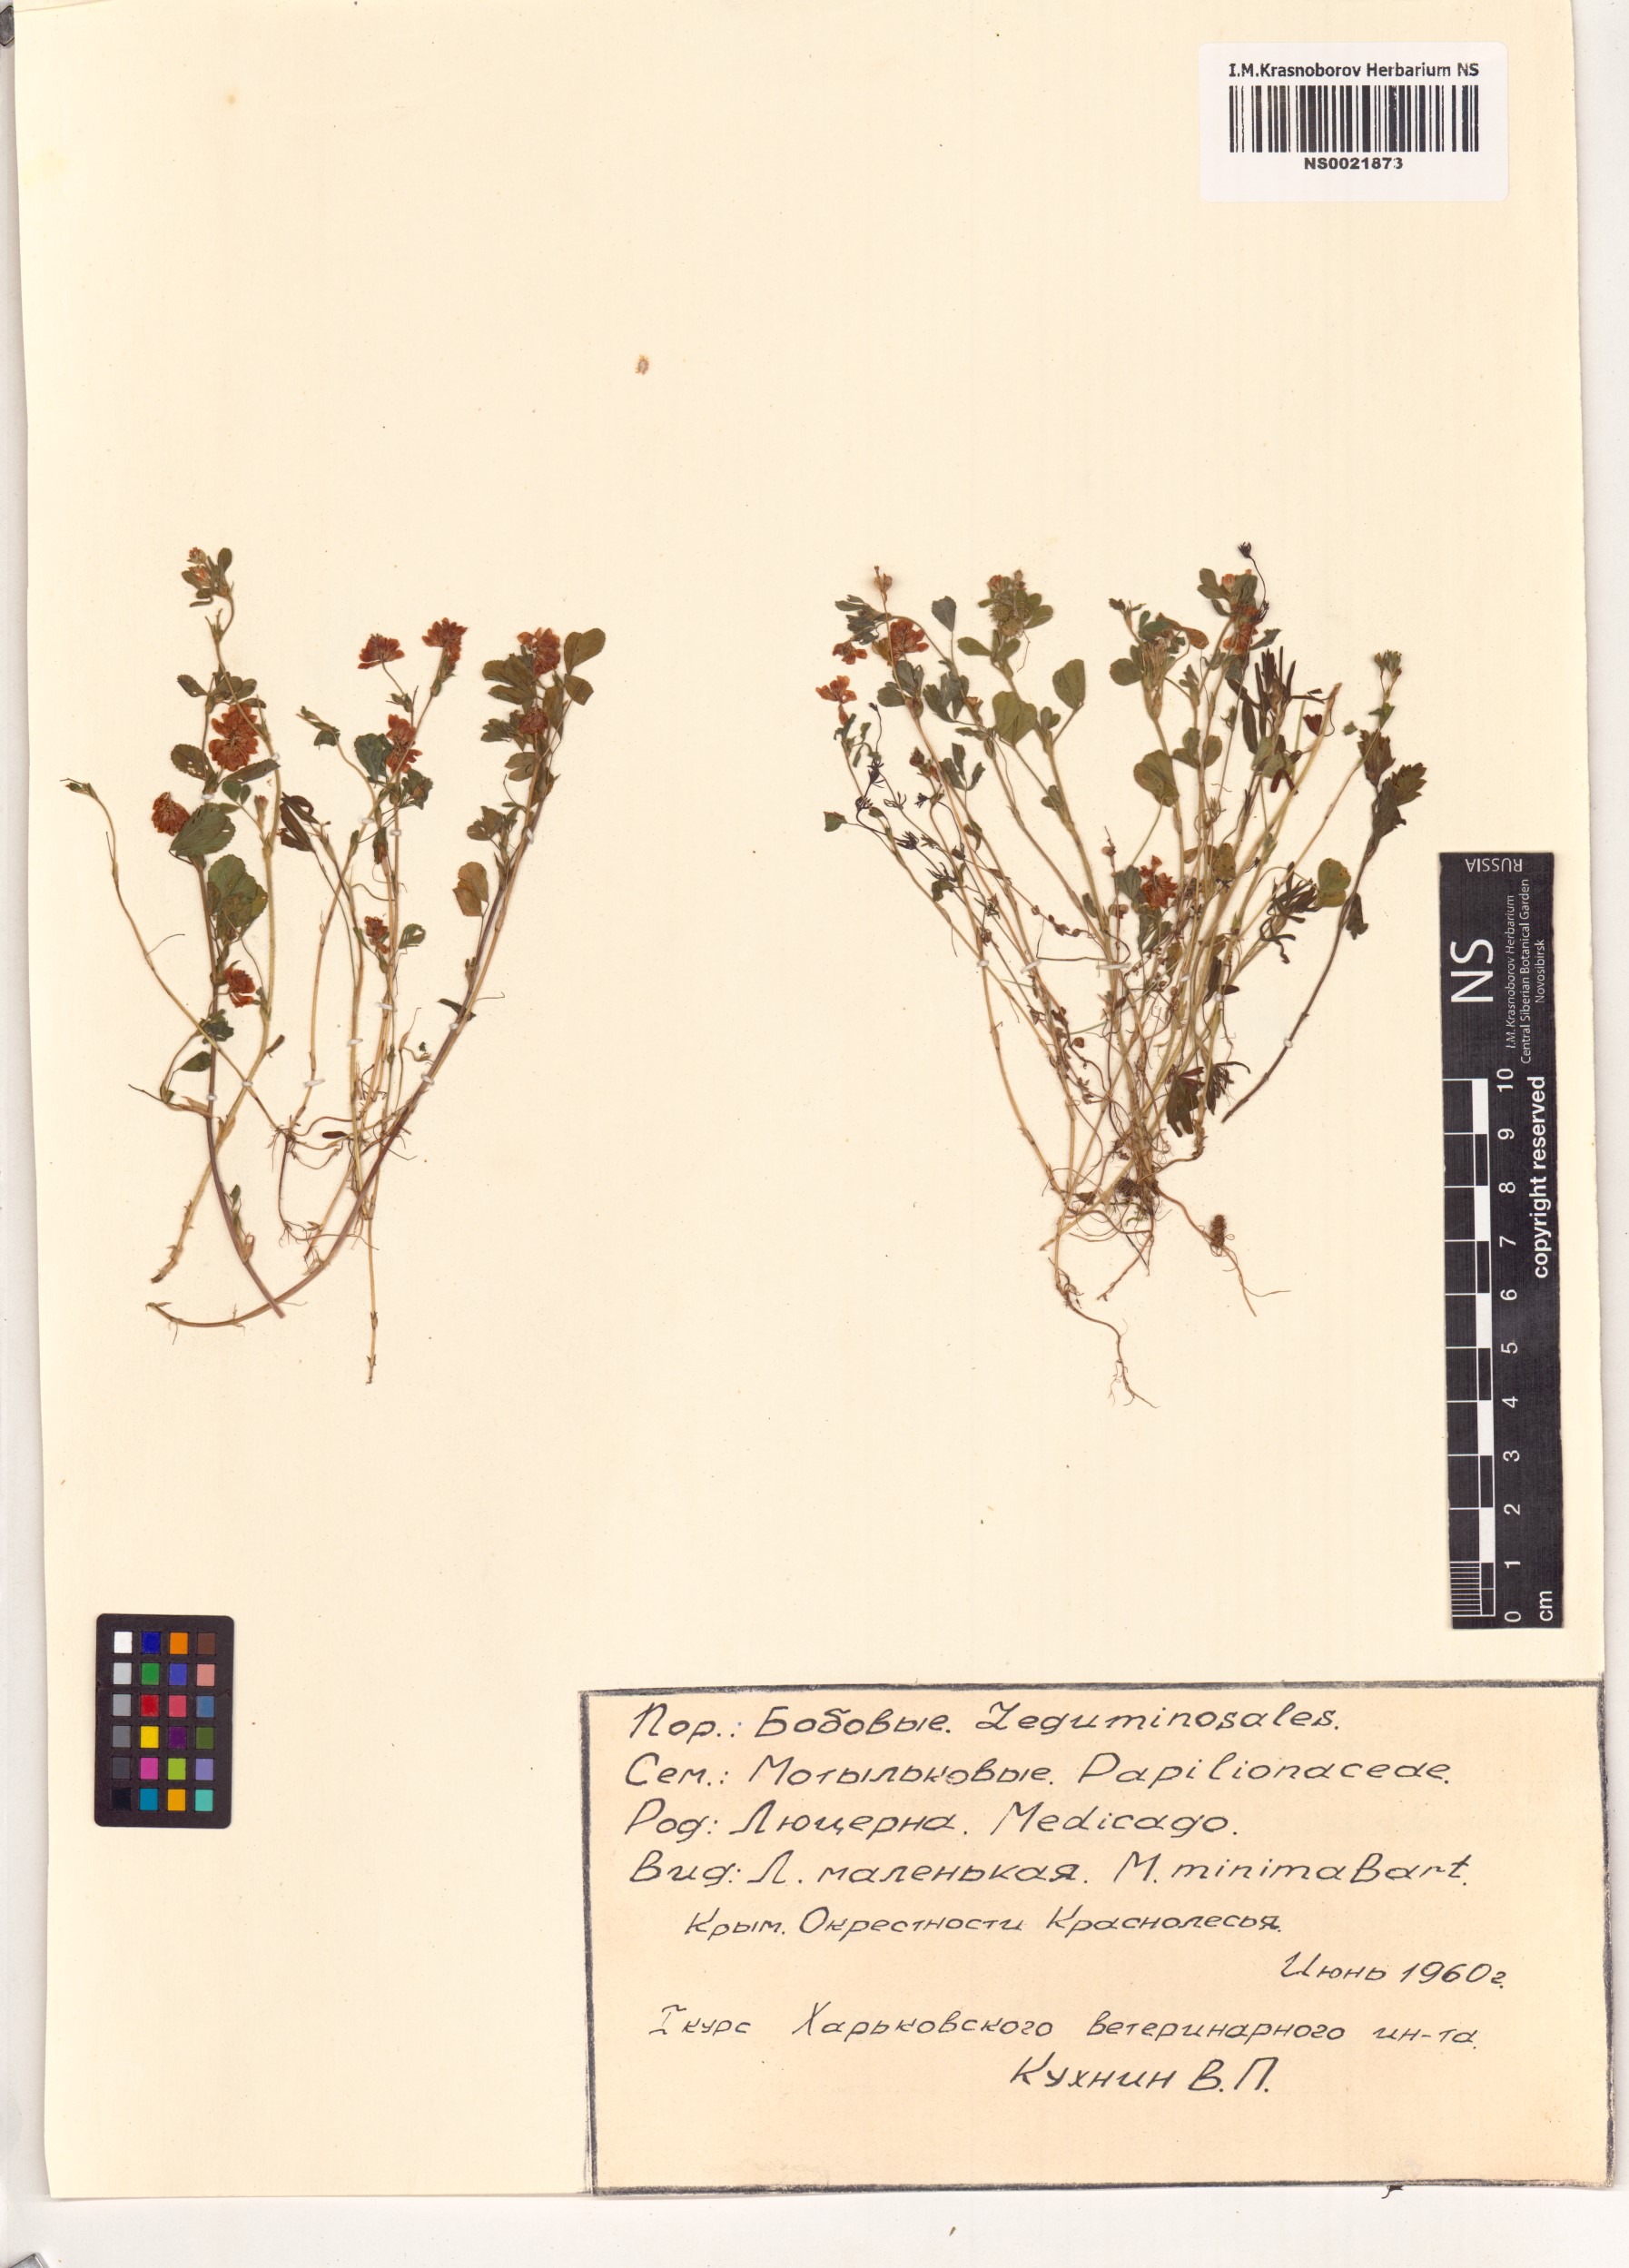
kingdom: Plantae
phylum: Tracheophyta
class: Magnoliopsida
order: Fabales
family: Fabaceae
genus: Medicago
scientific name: Medicago minima
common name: Little bur-clover
